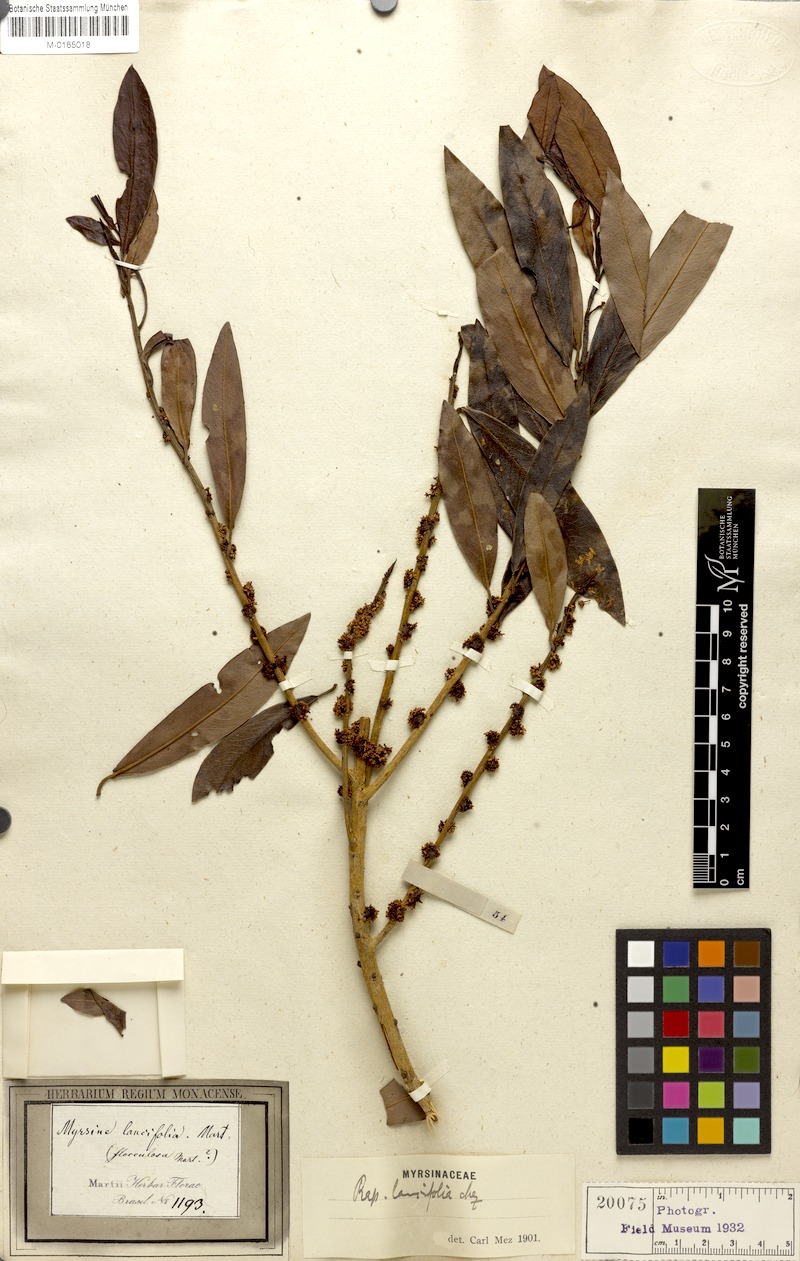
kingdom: Plantae
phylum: Tracheophyta
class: Magnoliopsida
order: Ericales
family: Primulaceae
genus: Myrsine
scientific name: Myrsine lancifolia
